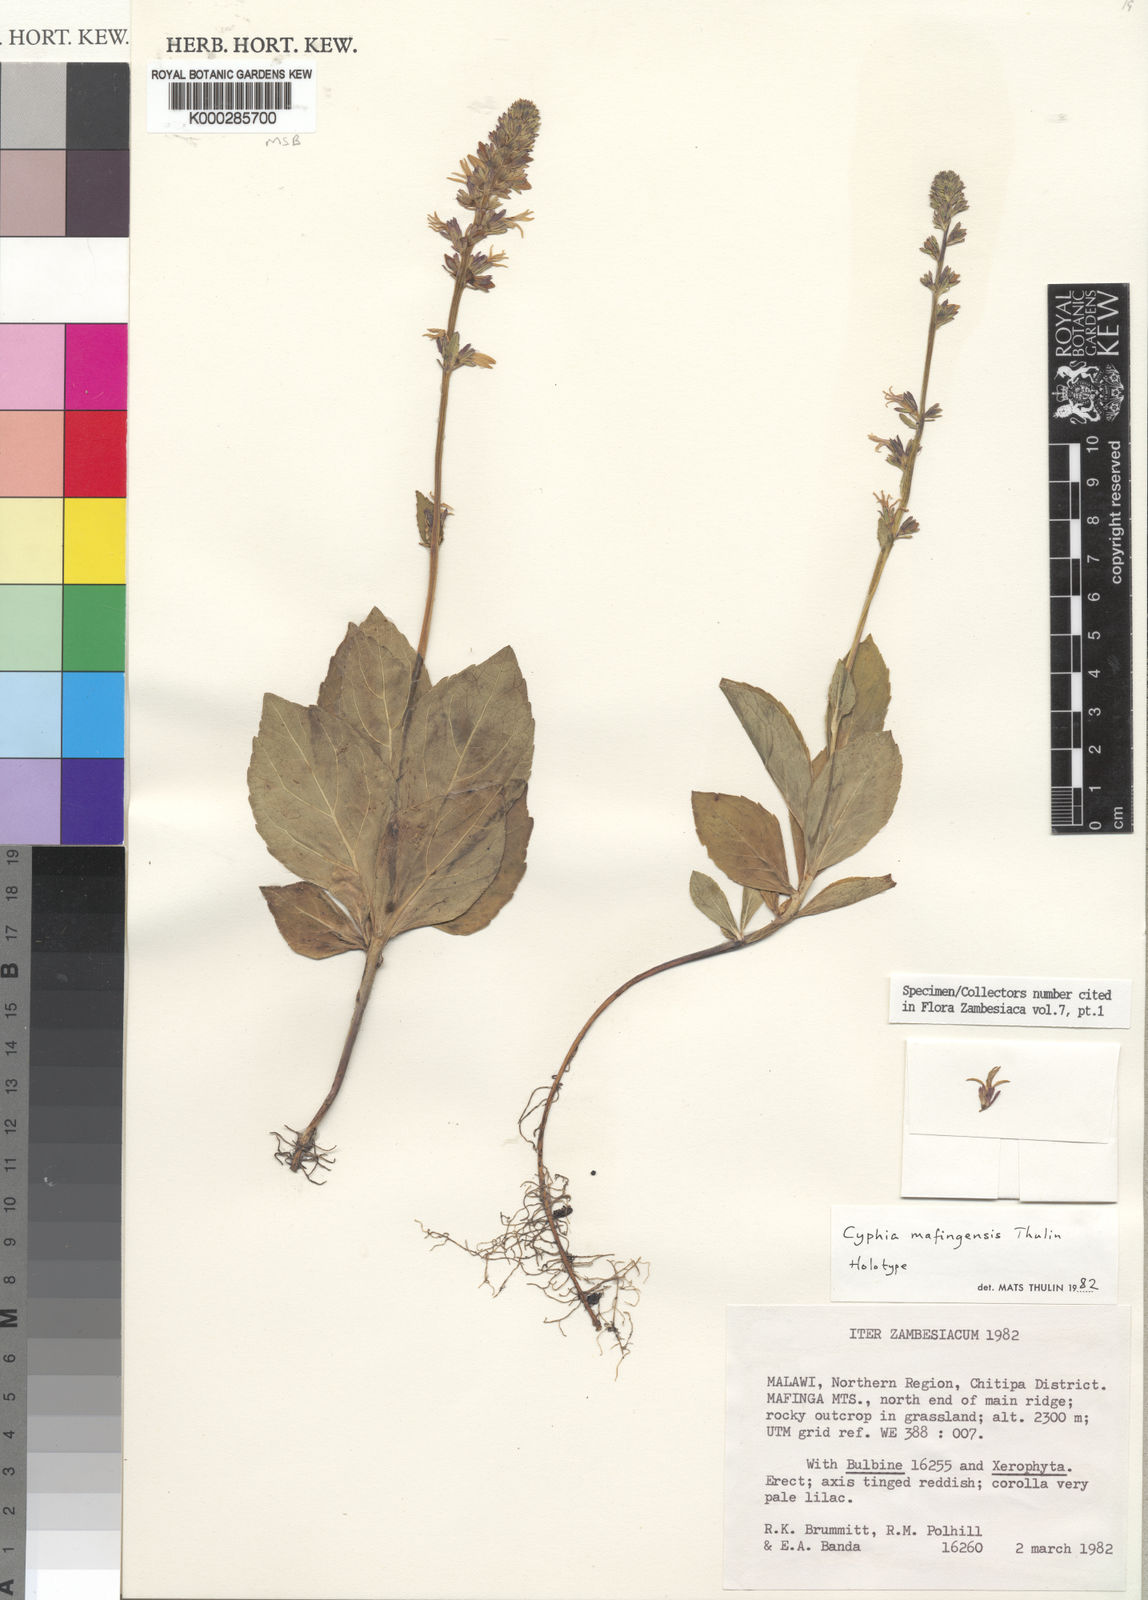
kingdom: Plantae
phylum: Tracheophyta
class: Magnoliopsida
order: Asterales
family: Campanulaceae
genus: Cyphia
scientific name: Cyphia mafingensis
